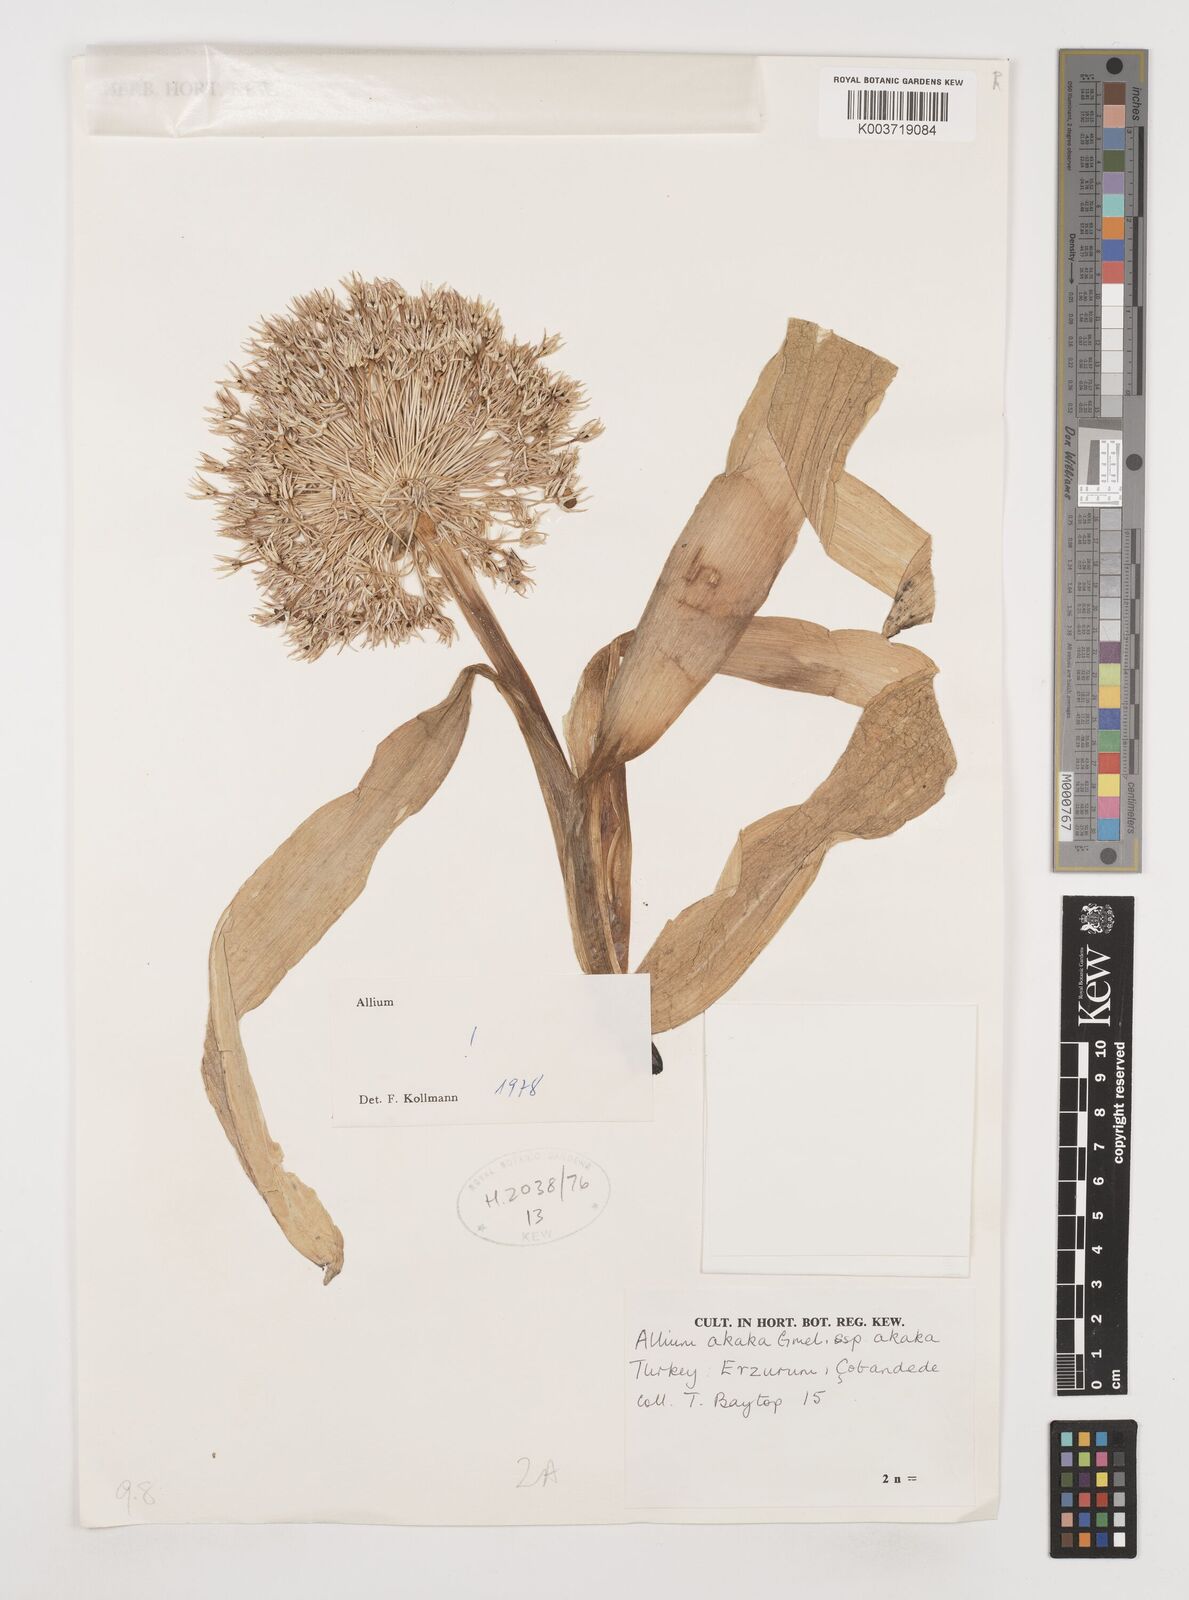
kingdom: Plantae
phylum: Tracheophyta
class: Liliopsida
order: Asparagales
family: Amaryllidaceae
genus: Allium
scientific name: Allium akaka
